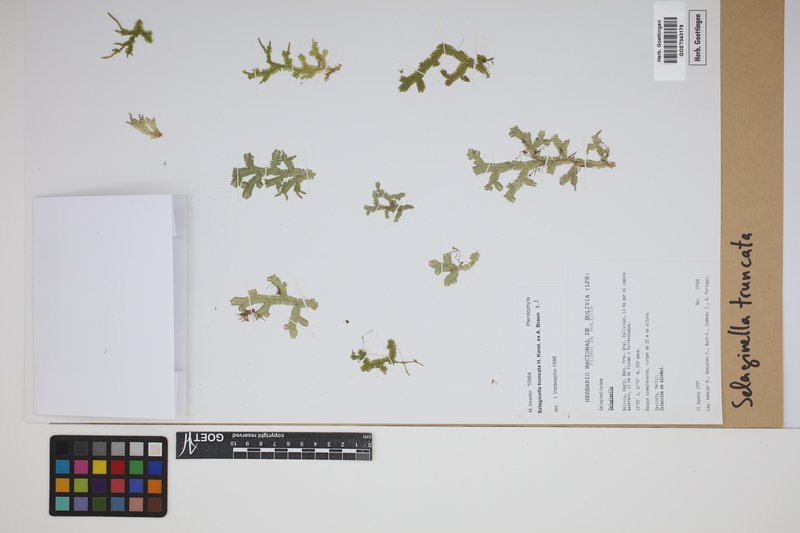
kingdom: Plantae
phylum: Tracheophyta
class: Lycopodiopsida
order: Selaginellales
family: Selaginellaceae
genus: Selaginella
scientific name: Selaginella truncata
